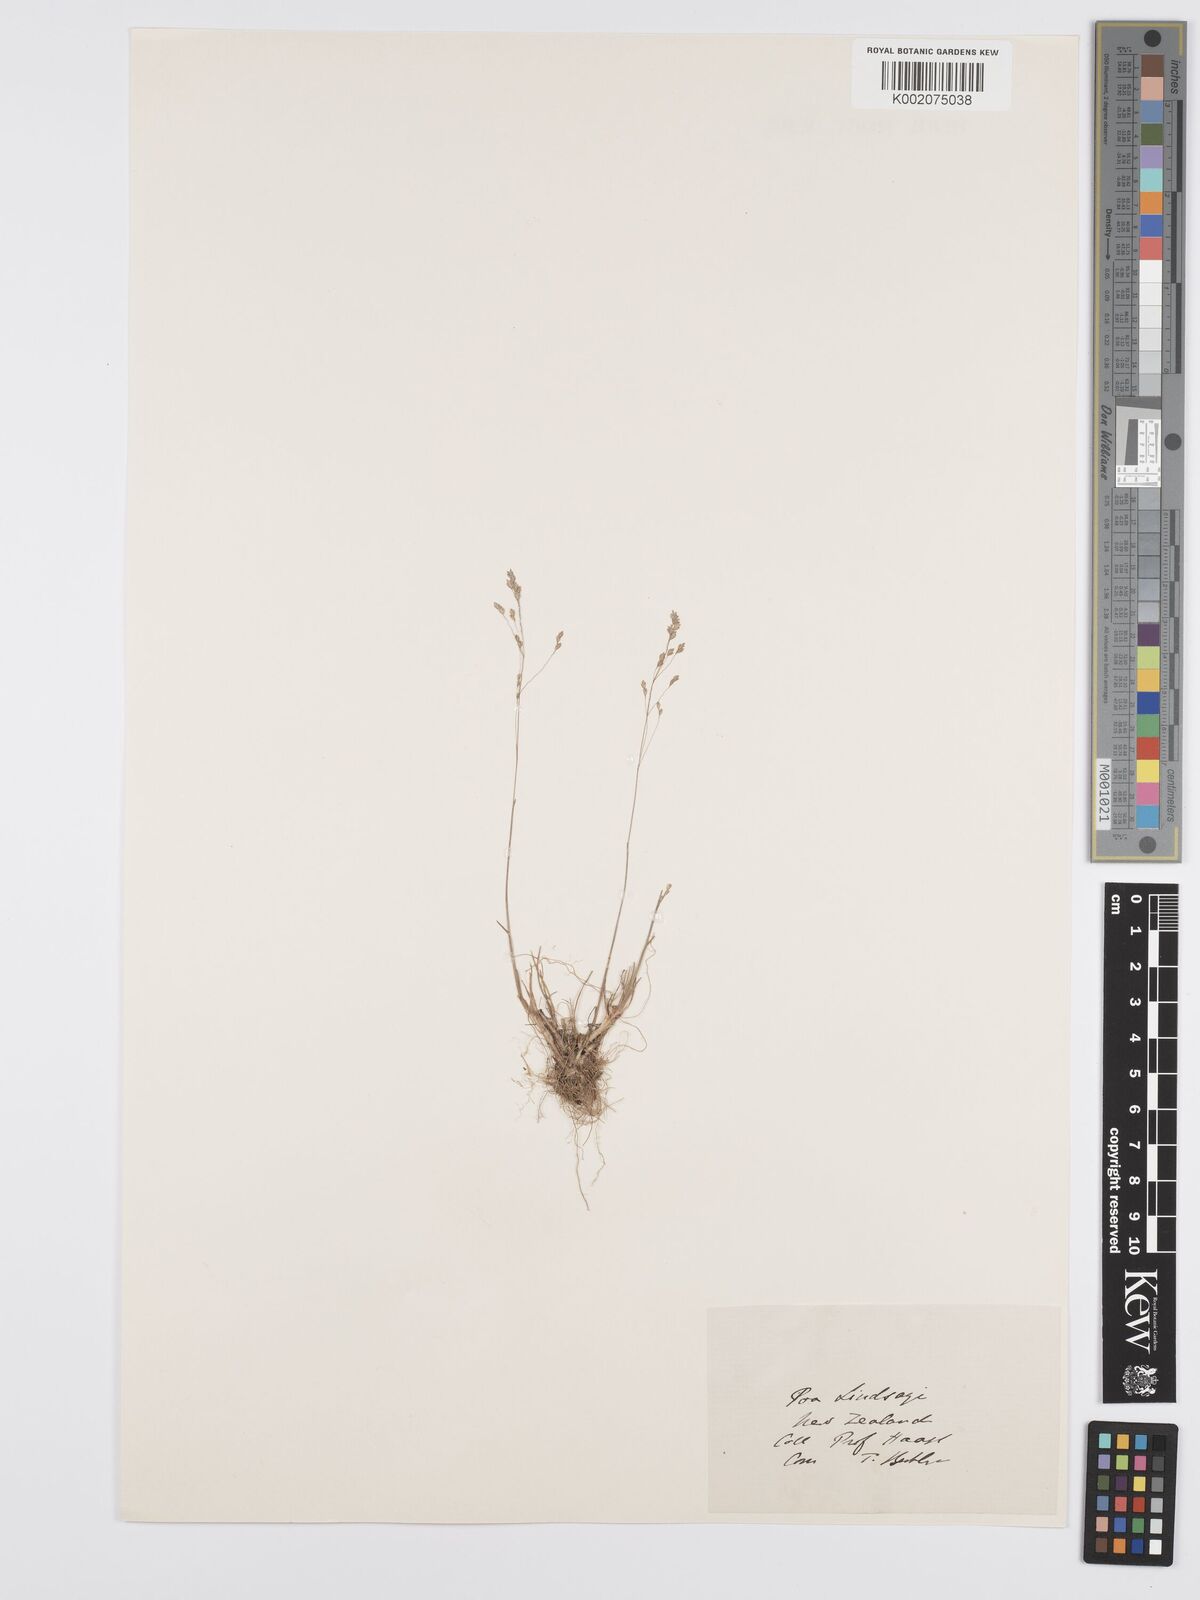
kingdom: Plantae
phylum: Tracheophyta
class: Liliopsida
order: Poales
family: Poaceae
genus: Poa
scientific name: Poa lindsayi
